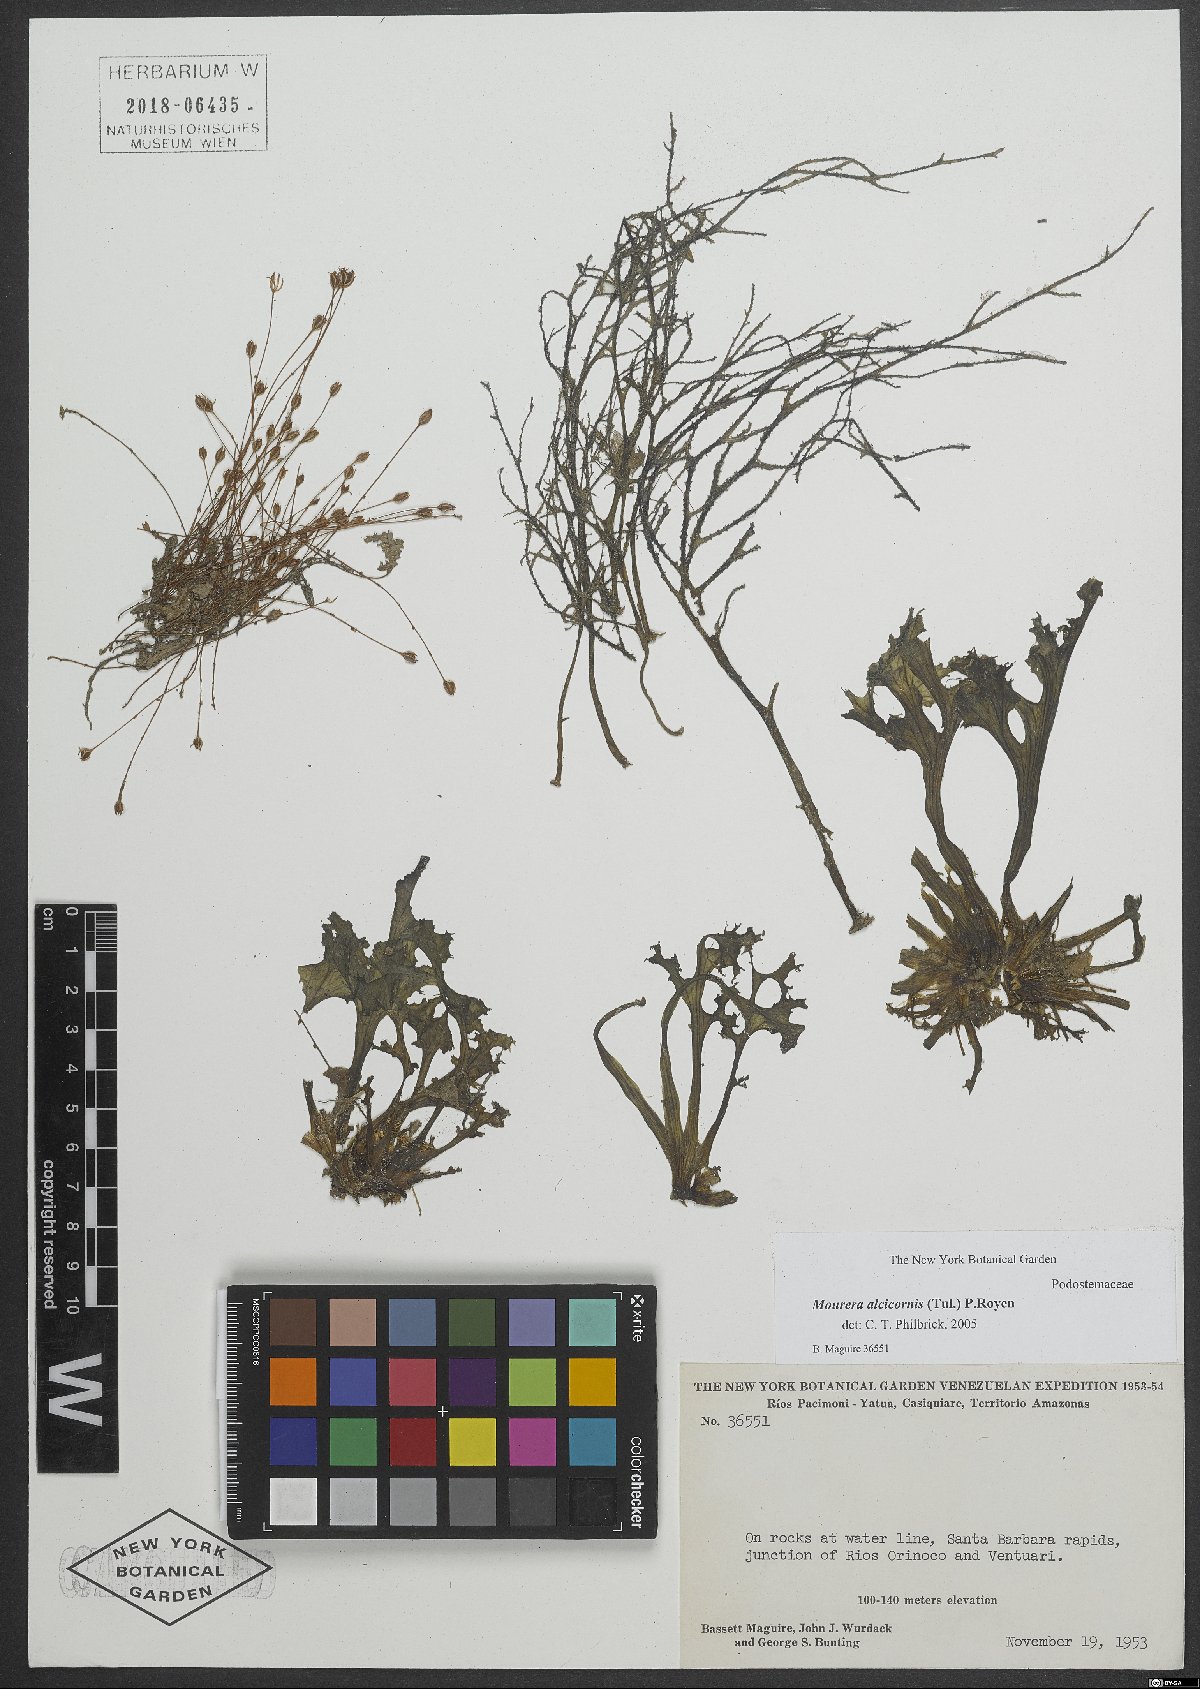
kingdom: Plantae
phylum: Tracheophyta
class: Magnoliopsida
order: Malpighiales
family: Podostemaceae
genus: Mourera
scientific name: Mourera alcicornis
